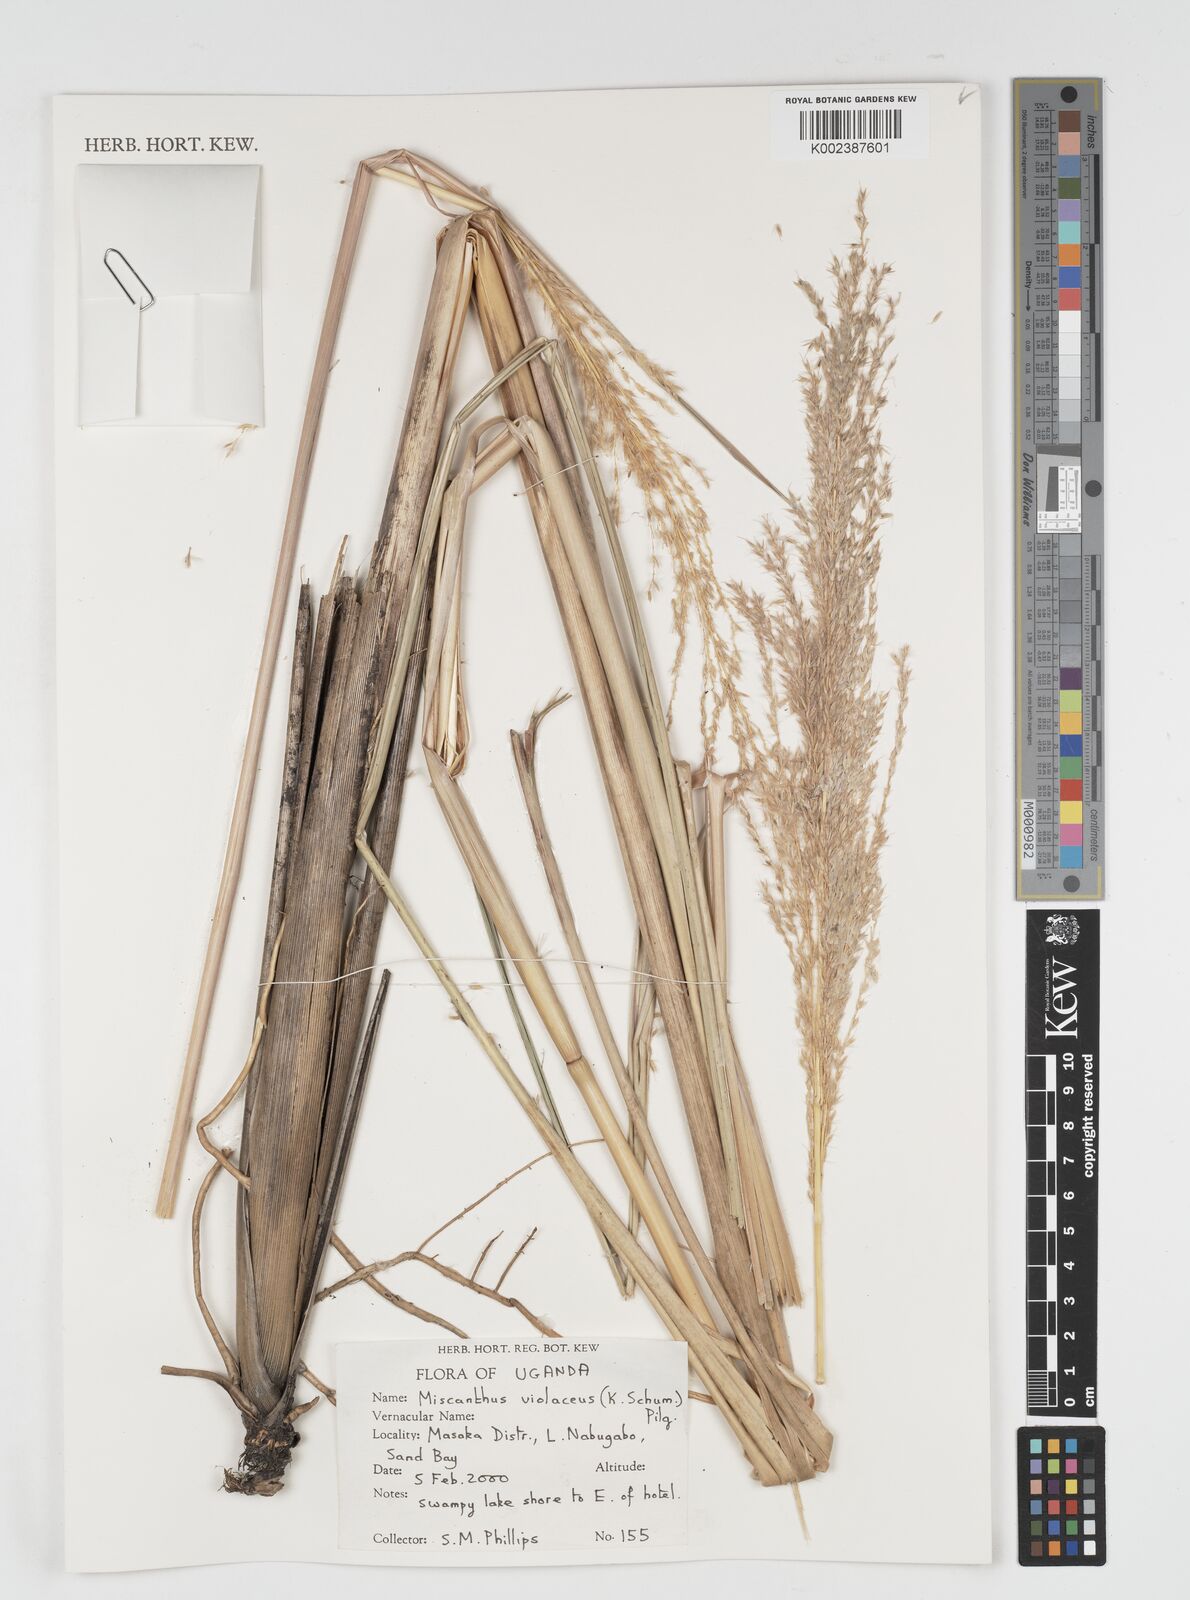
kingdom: Plantae
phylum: Tracheophyta
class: Liliopsida
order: Poales
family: Poaceae
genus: Miscanthidium
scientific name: Miscanthidium violaceum
